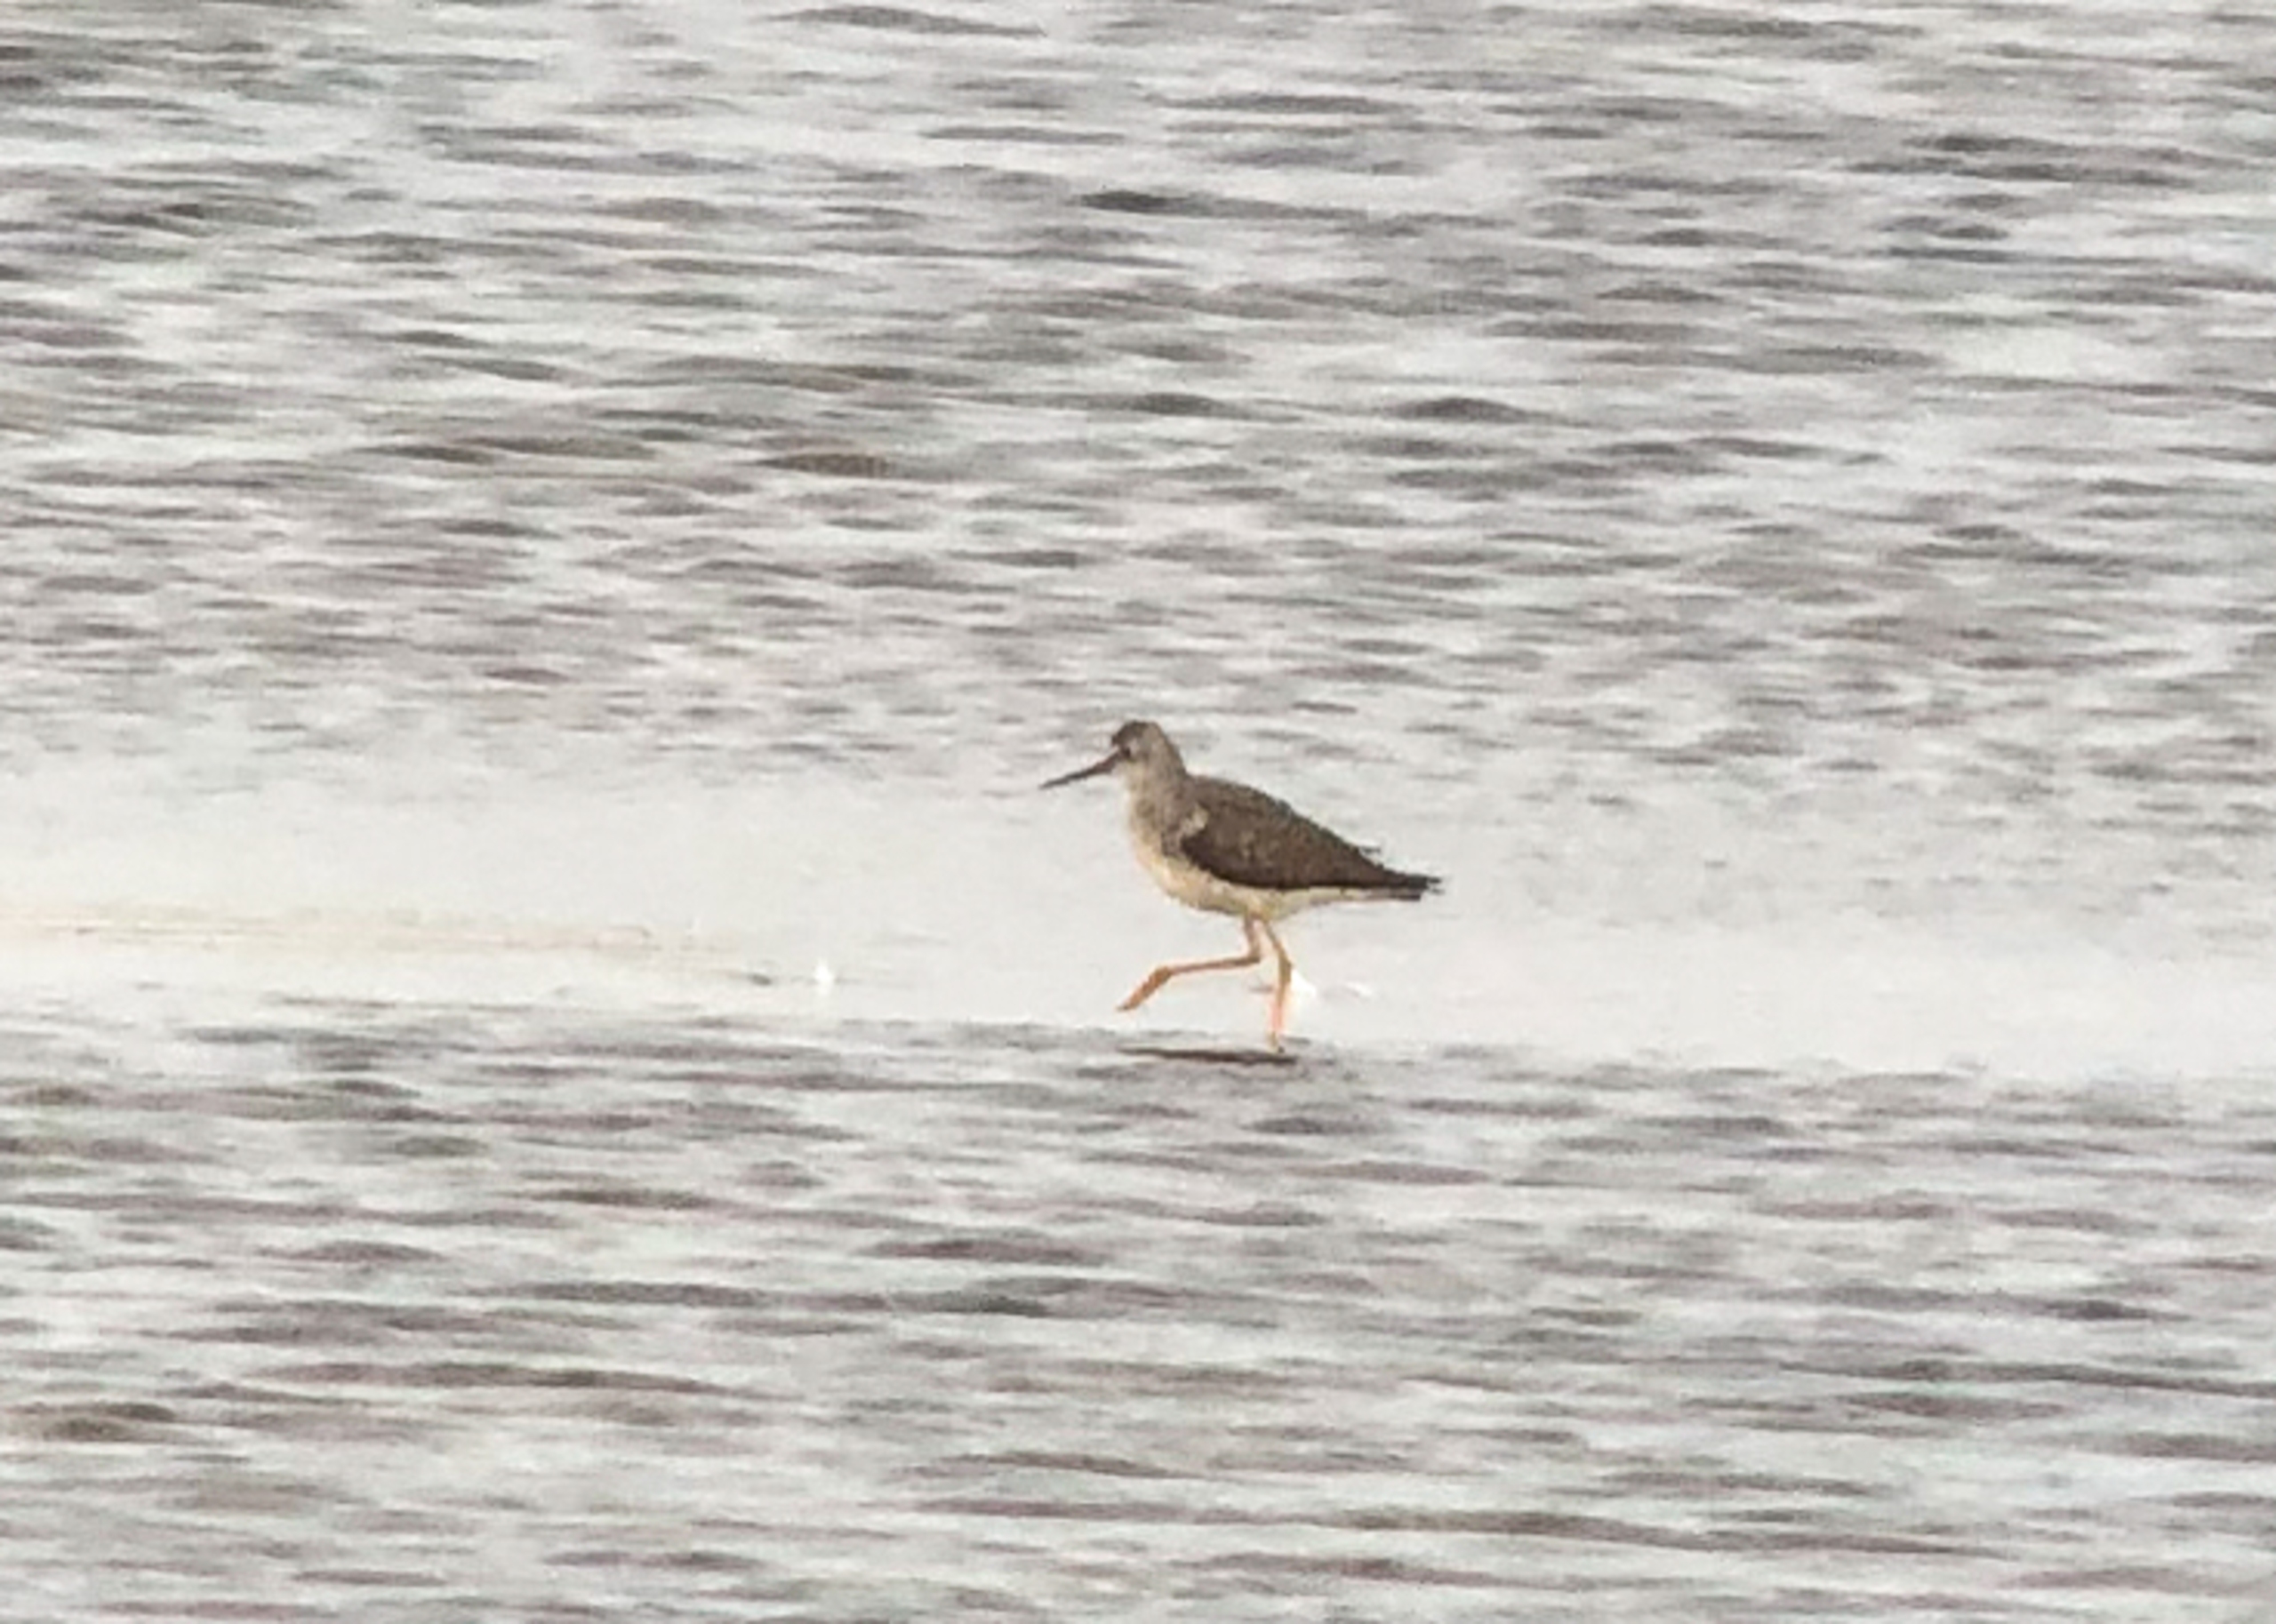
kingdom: Animalia
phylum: Chordata
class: Aves
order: Charadriiformes
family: Scolopacidae
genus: Tringa
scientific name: Tringa flavipes
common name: Lille gulben
